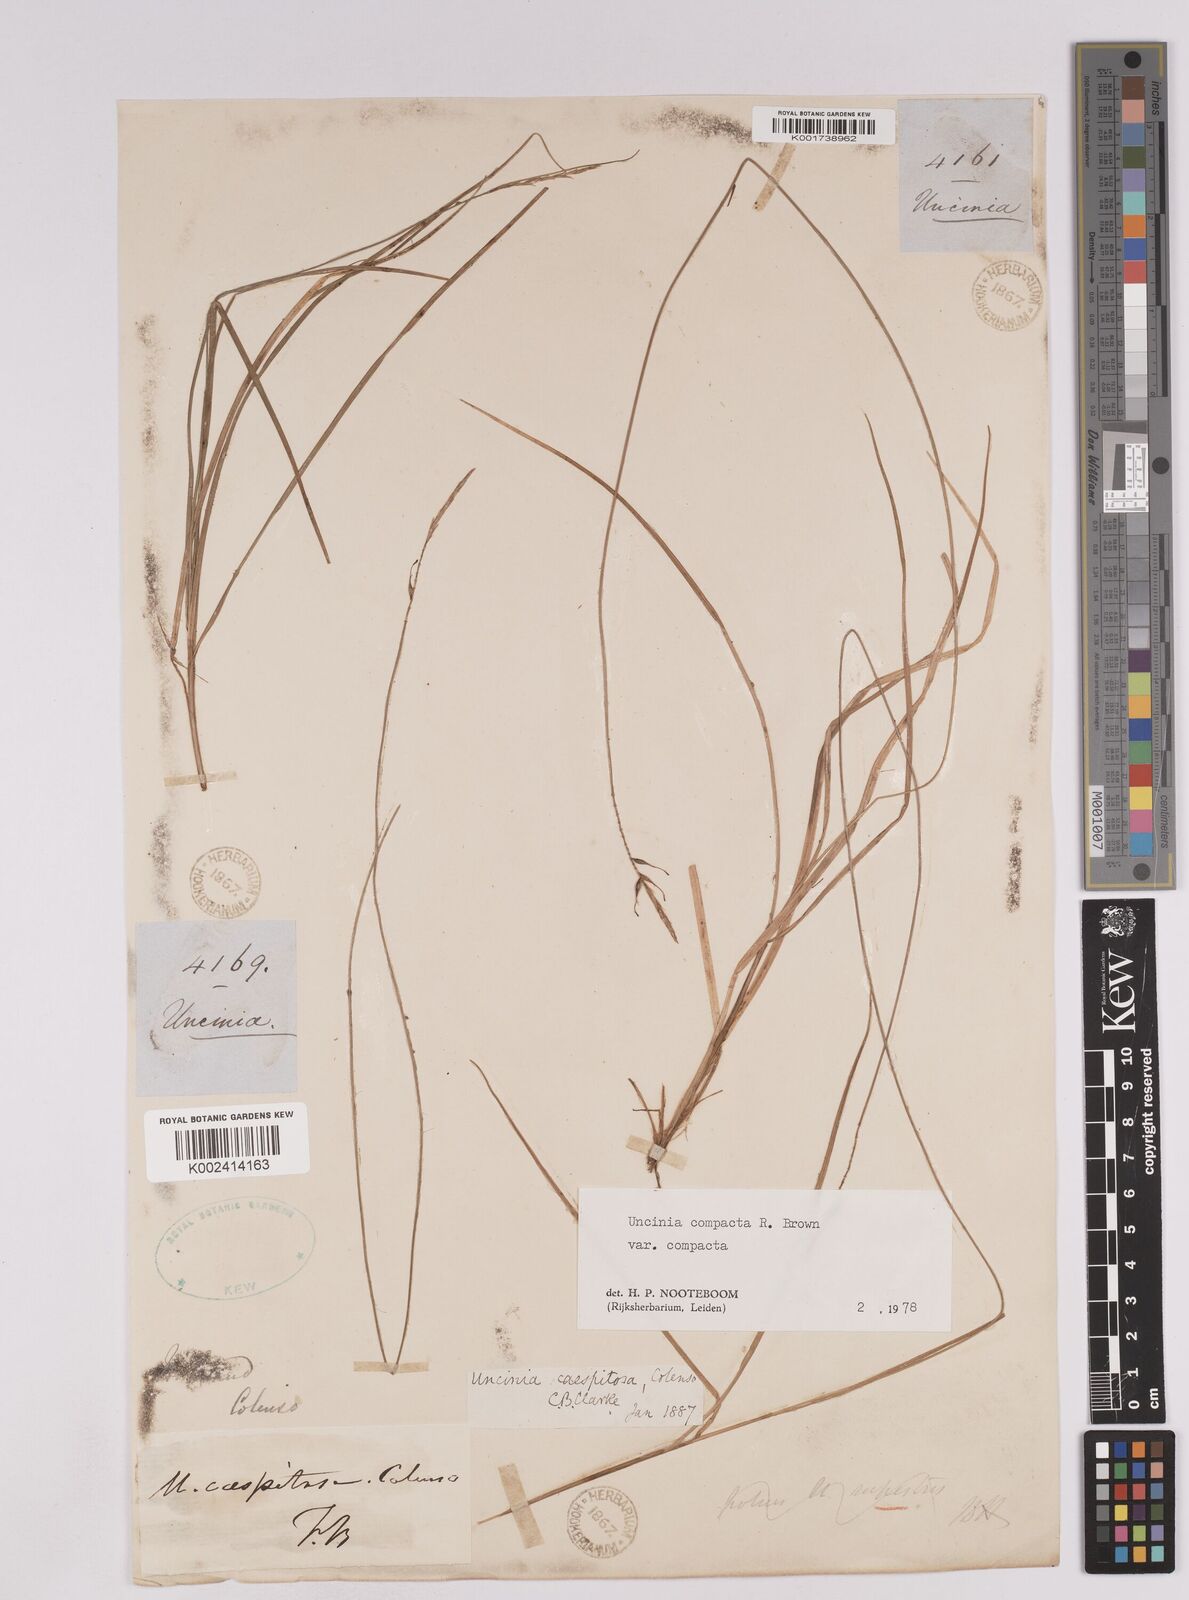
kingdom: Plantae
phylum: Tracheophyta
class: Liliopsida
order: Poales
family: Cyperaceae
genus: Carex
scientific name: Carex austrocompacta
